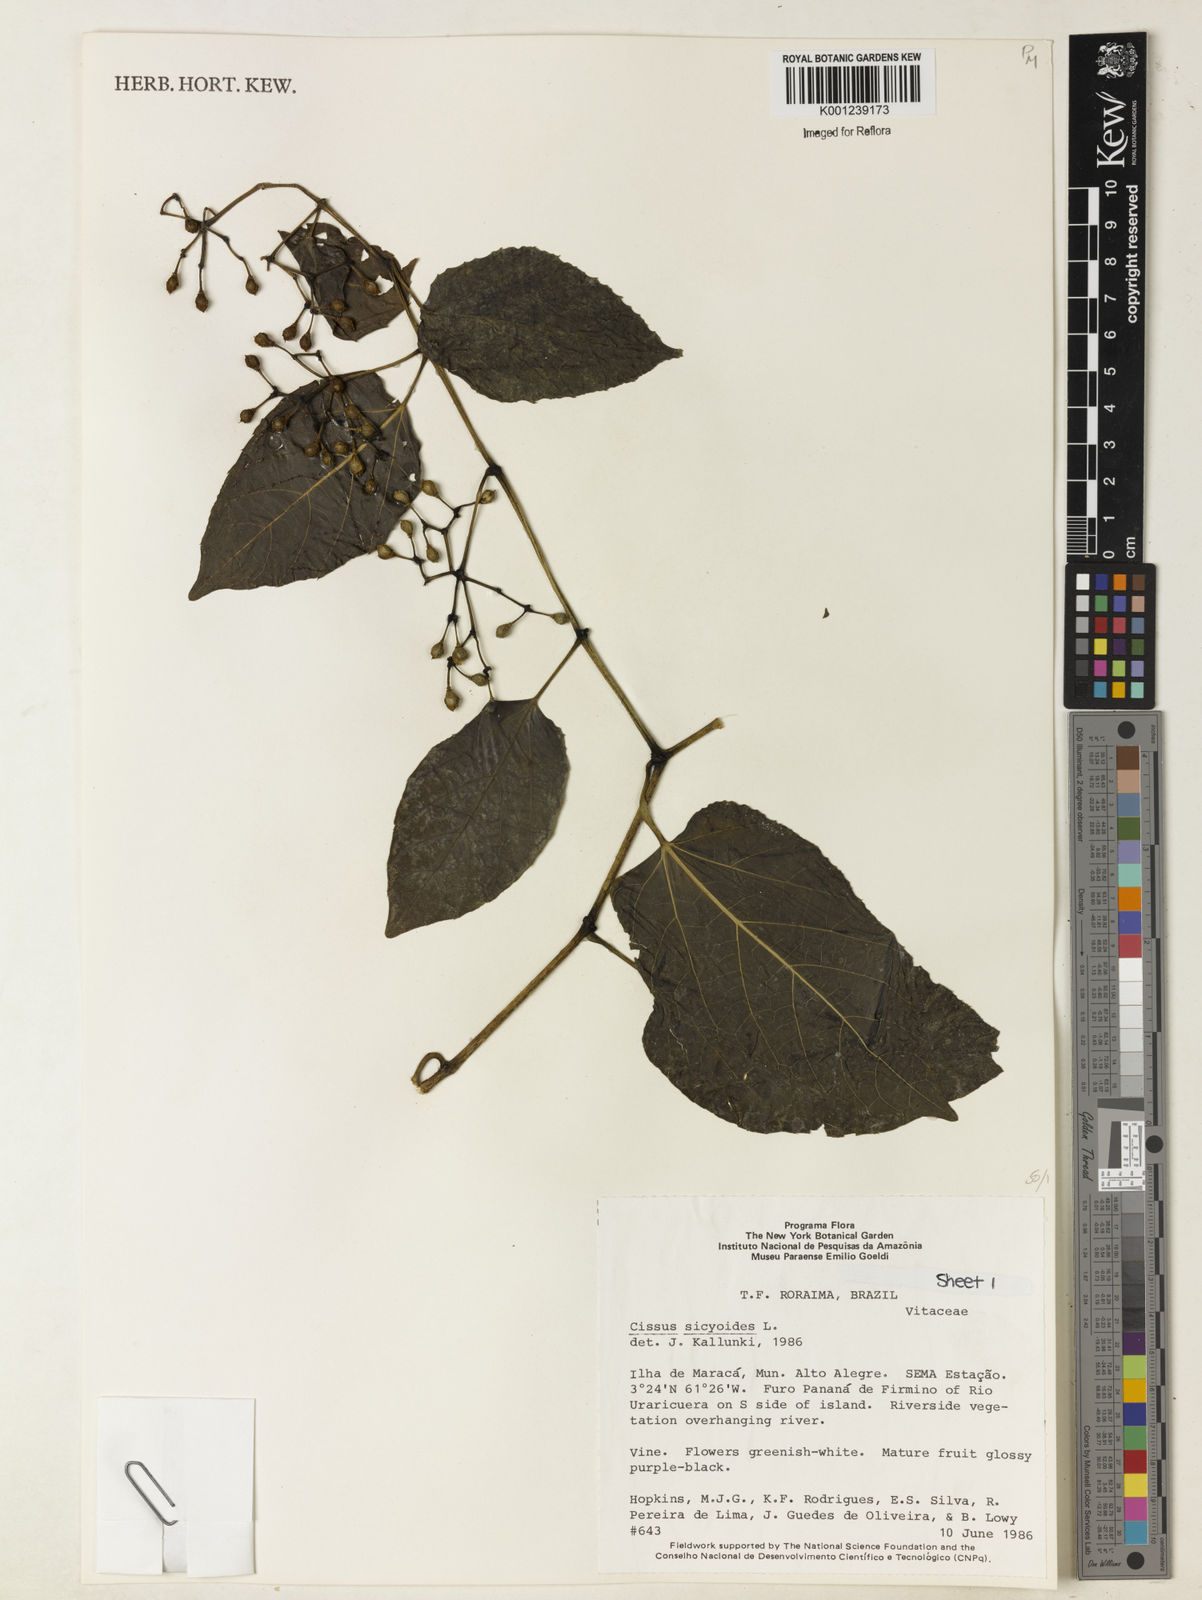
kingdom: Plantae
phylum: Tracheophyta
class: Magnoliopsida
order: Vitales
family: Vitaceae
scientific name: Vitaceae
